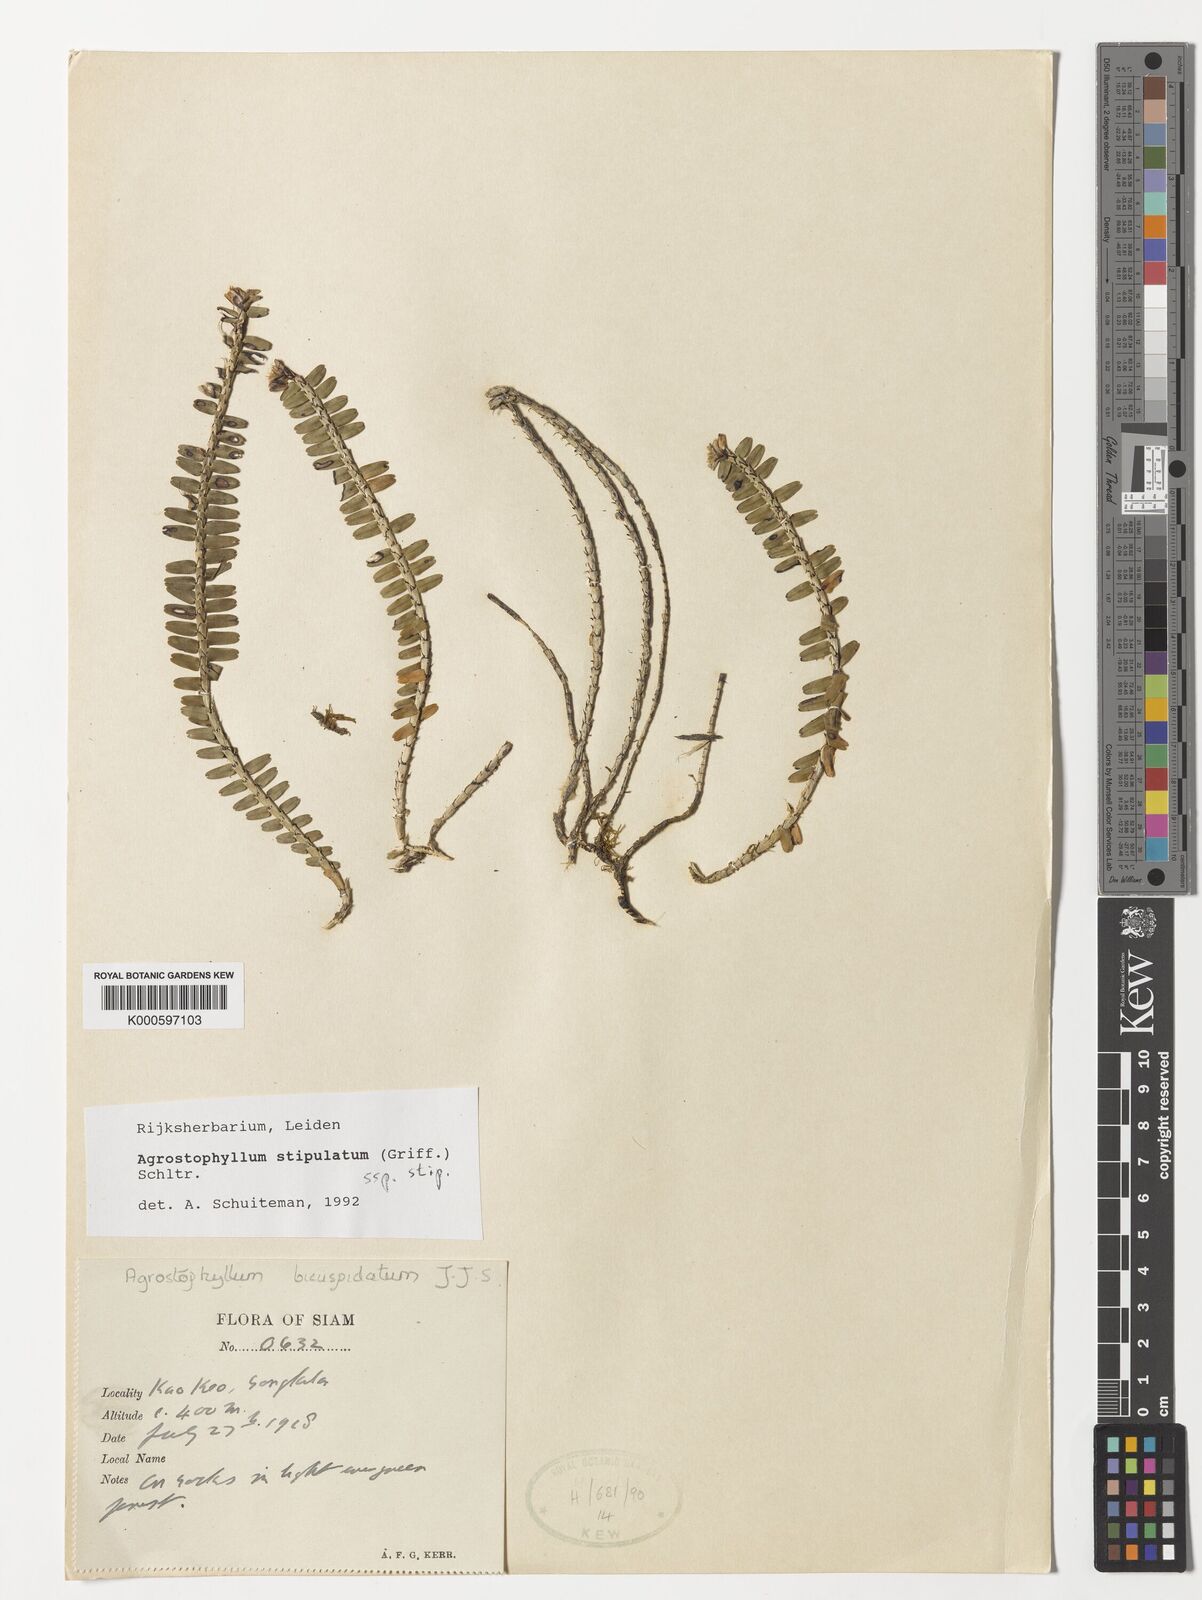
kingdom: Plantae
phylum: Tracheophyta
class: Liliopsida
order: Asparagales
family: Orchidaceae
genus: Agrostophyllum
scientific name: Agrostophyllum stipulatum
